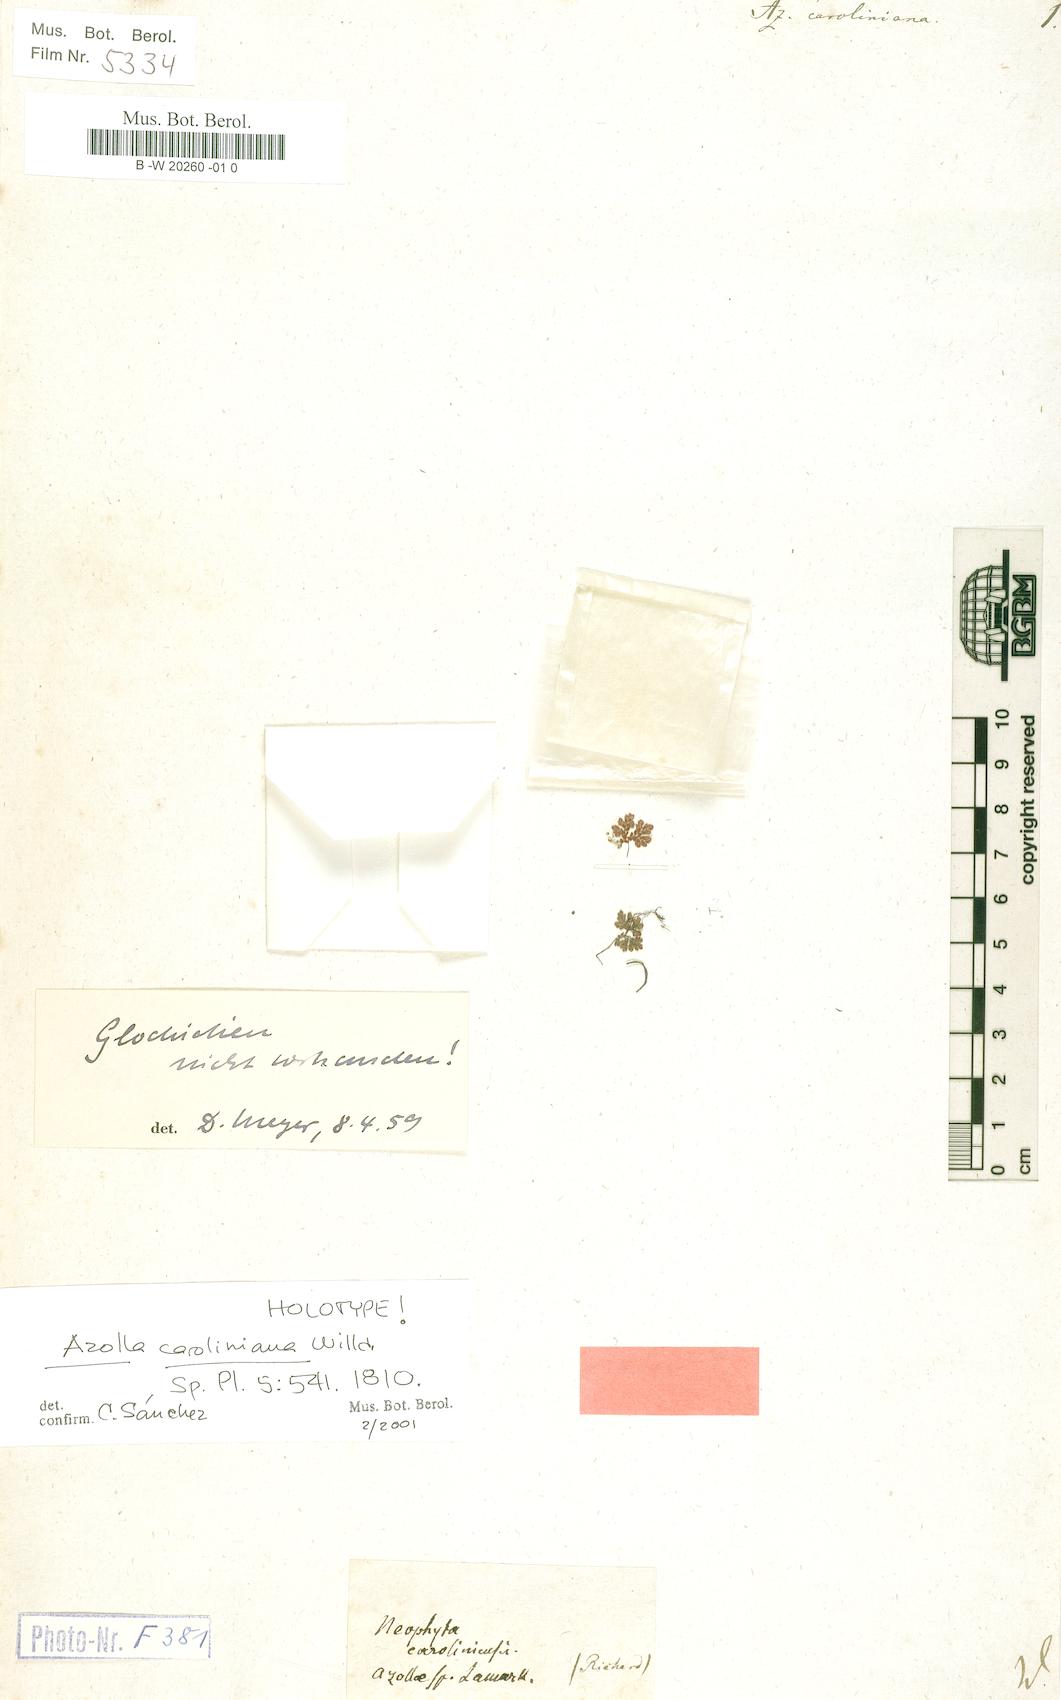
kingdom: Plantae
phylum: Tracheophyta
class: Polypodiopsida
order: Salviniales
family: Salviniaceae
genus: Azolla
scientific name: Azolla caroliniana
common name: Carolina mosquitofern
